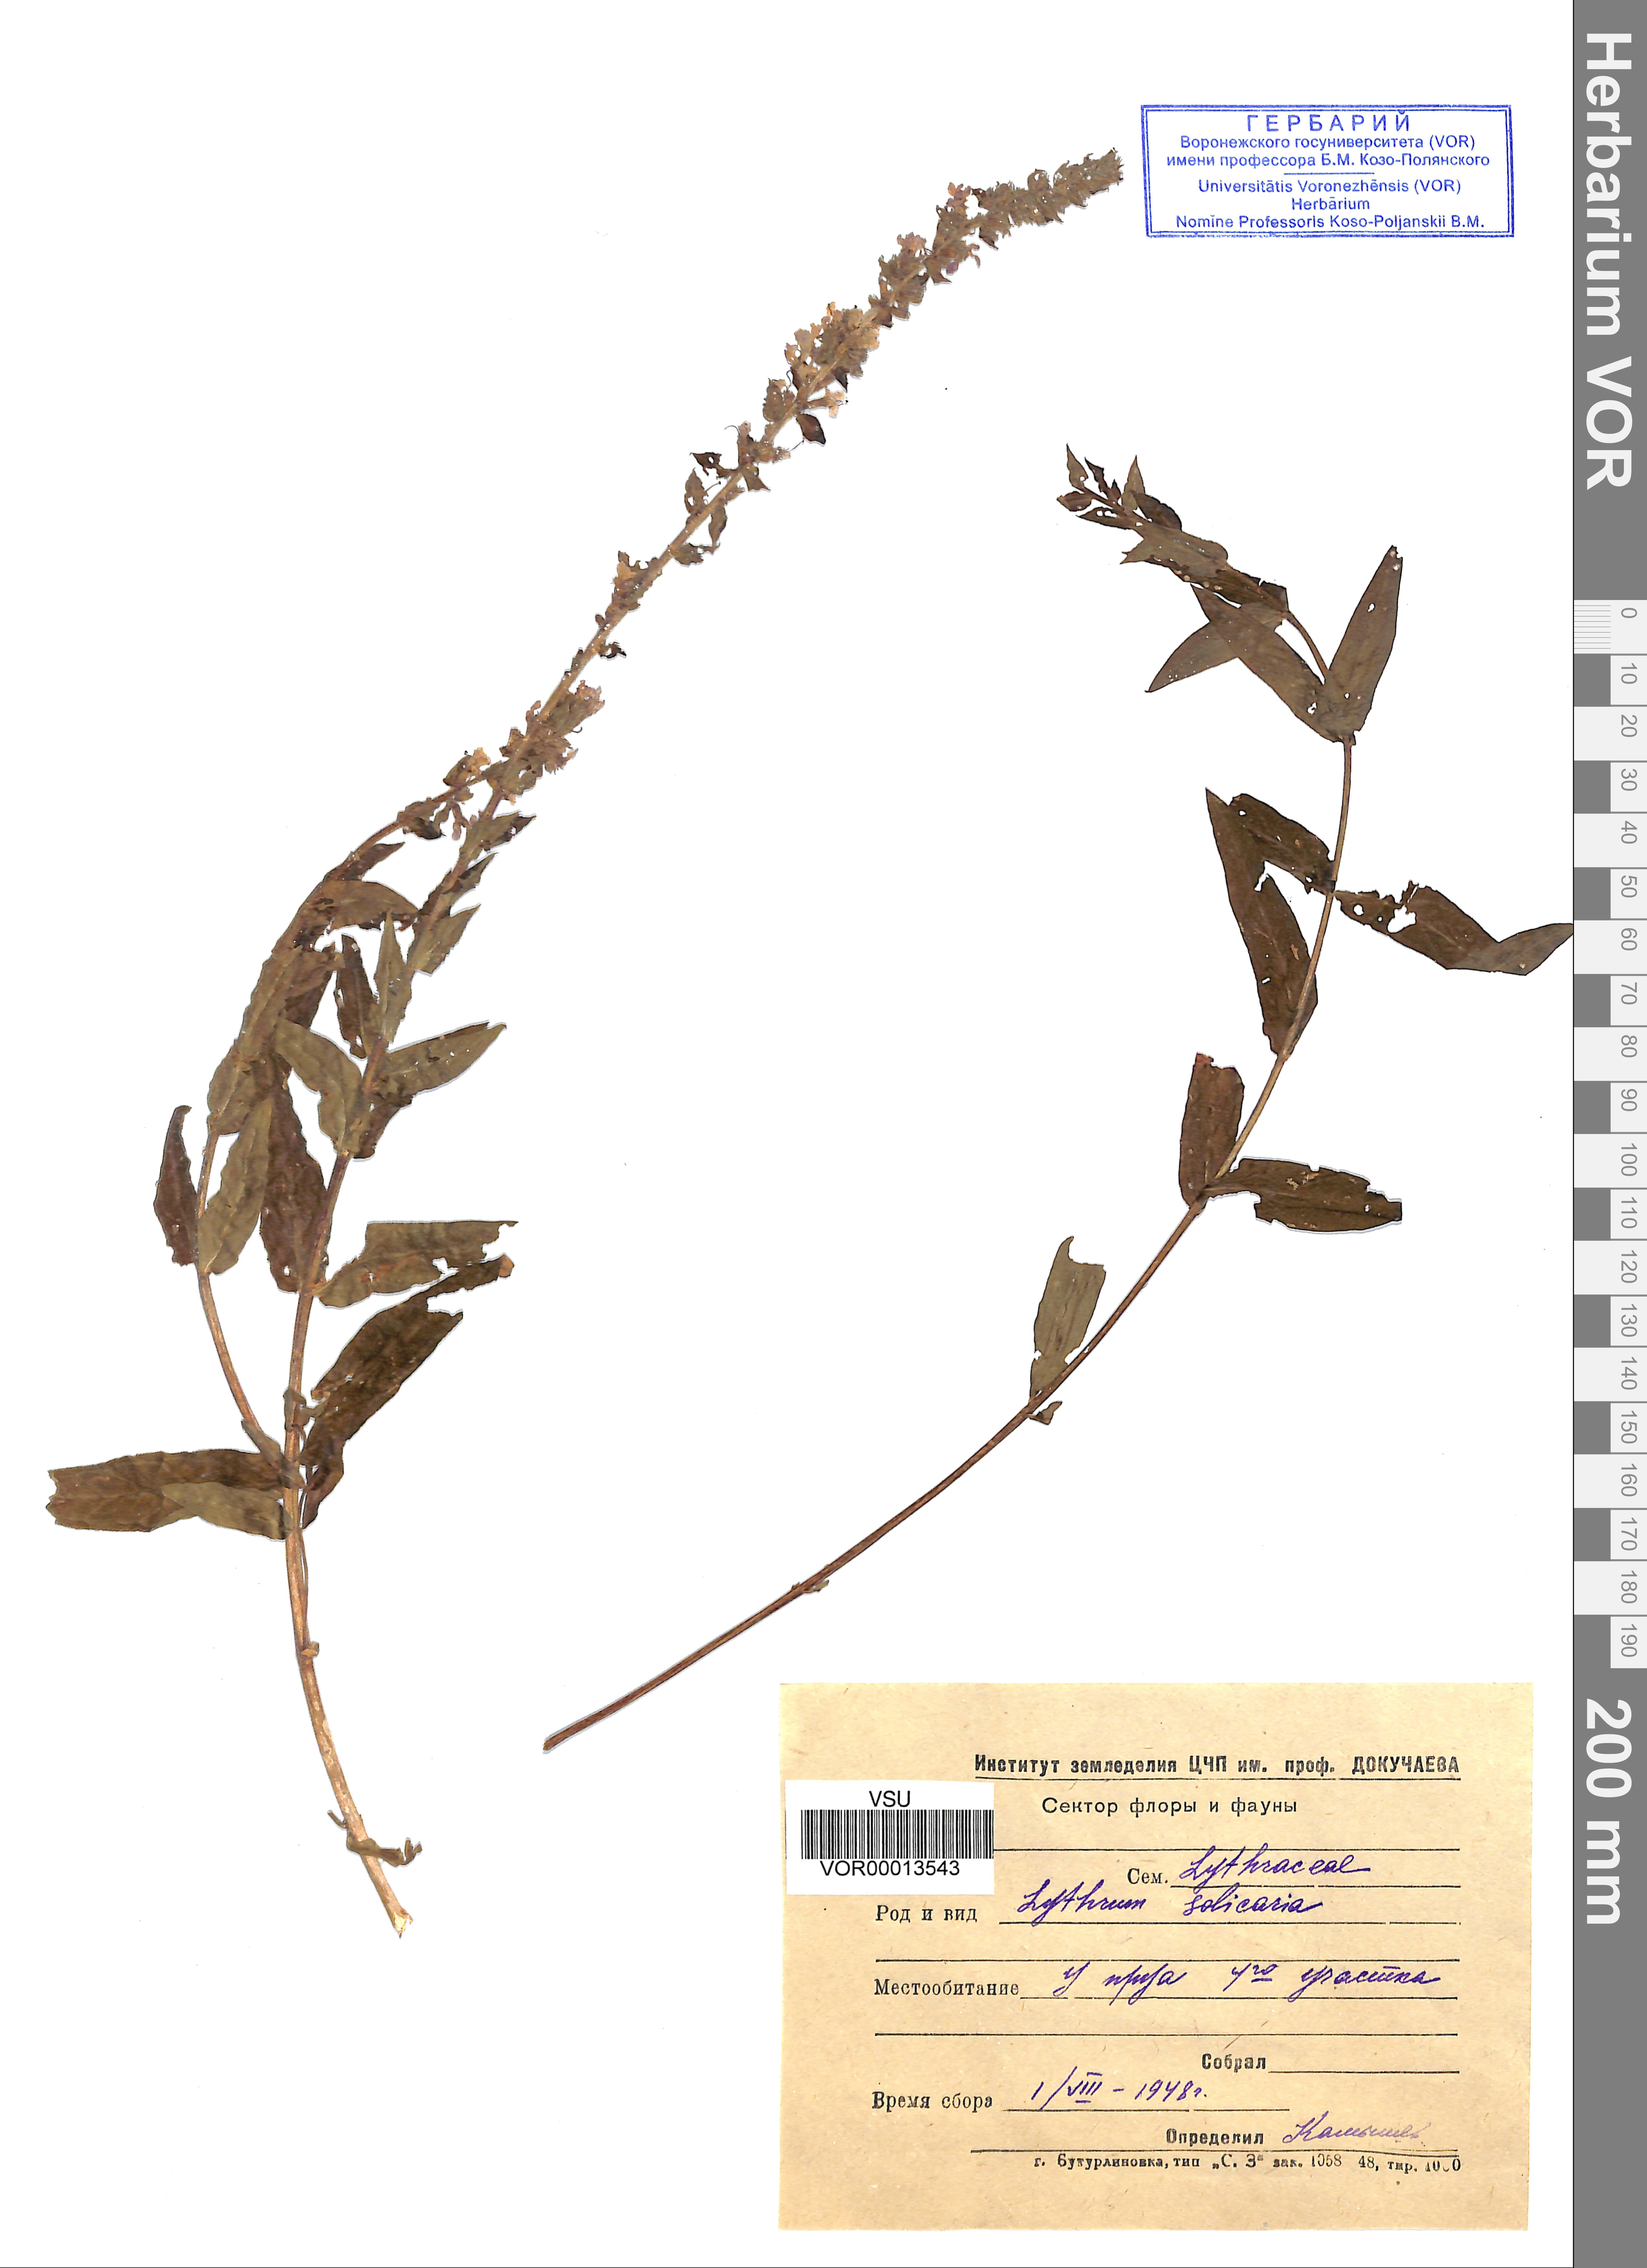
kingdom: Plantae
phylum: Tracheophyta
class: Magnoliopsida
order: Myrtales
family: Lythraceae
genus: Lythrum
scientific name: Lythrum salicaria
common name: Purple loosestrife
